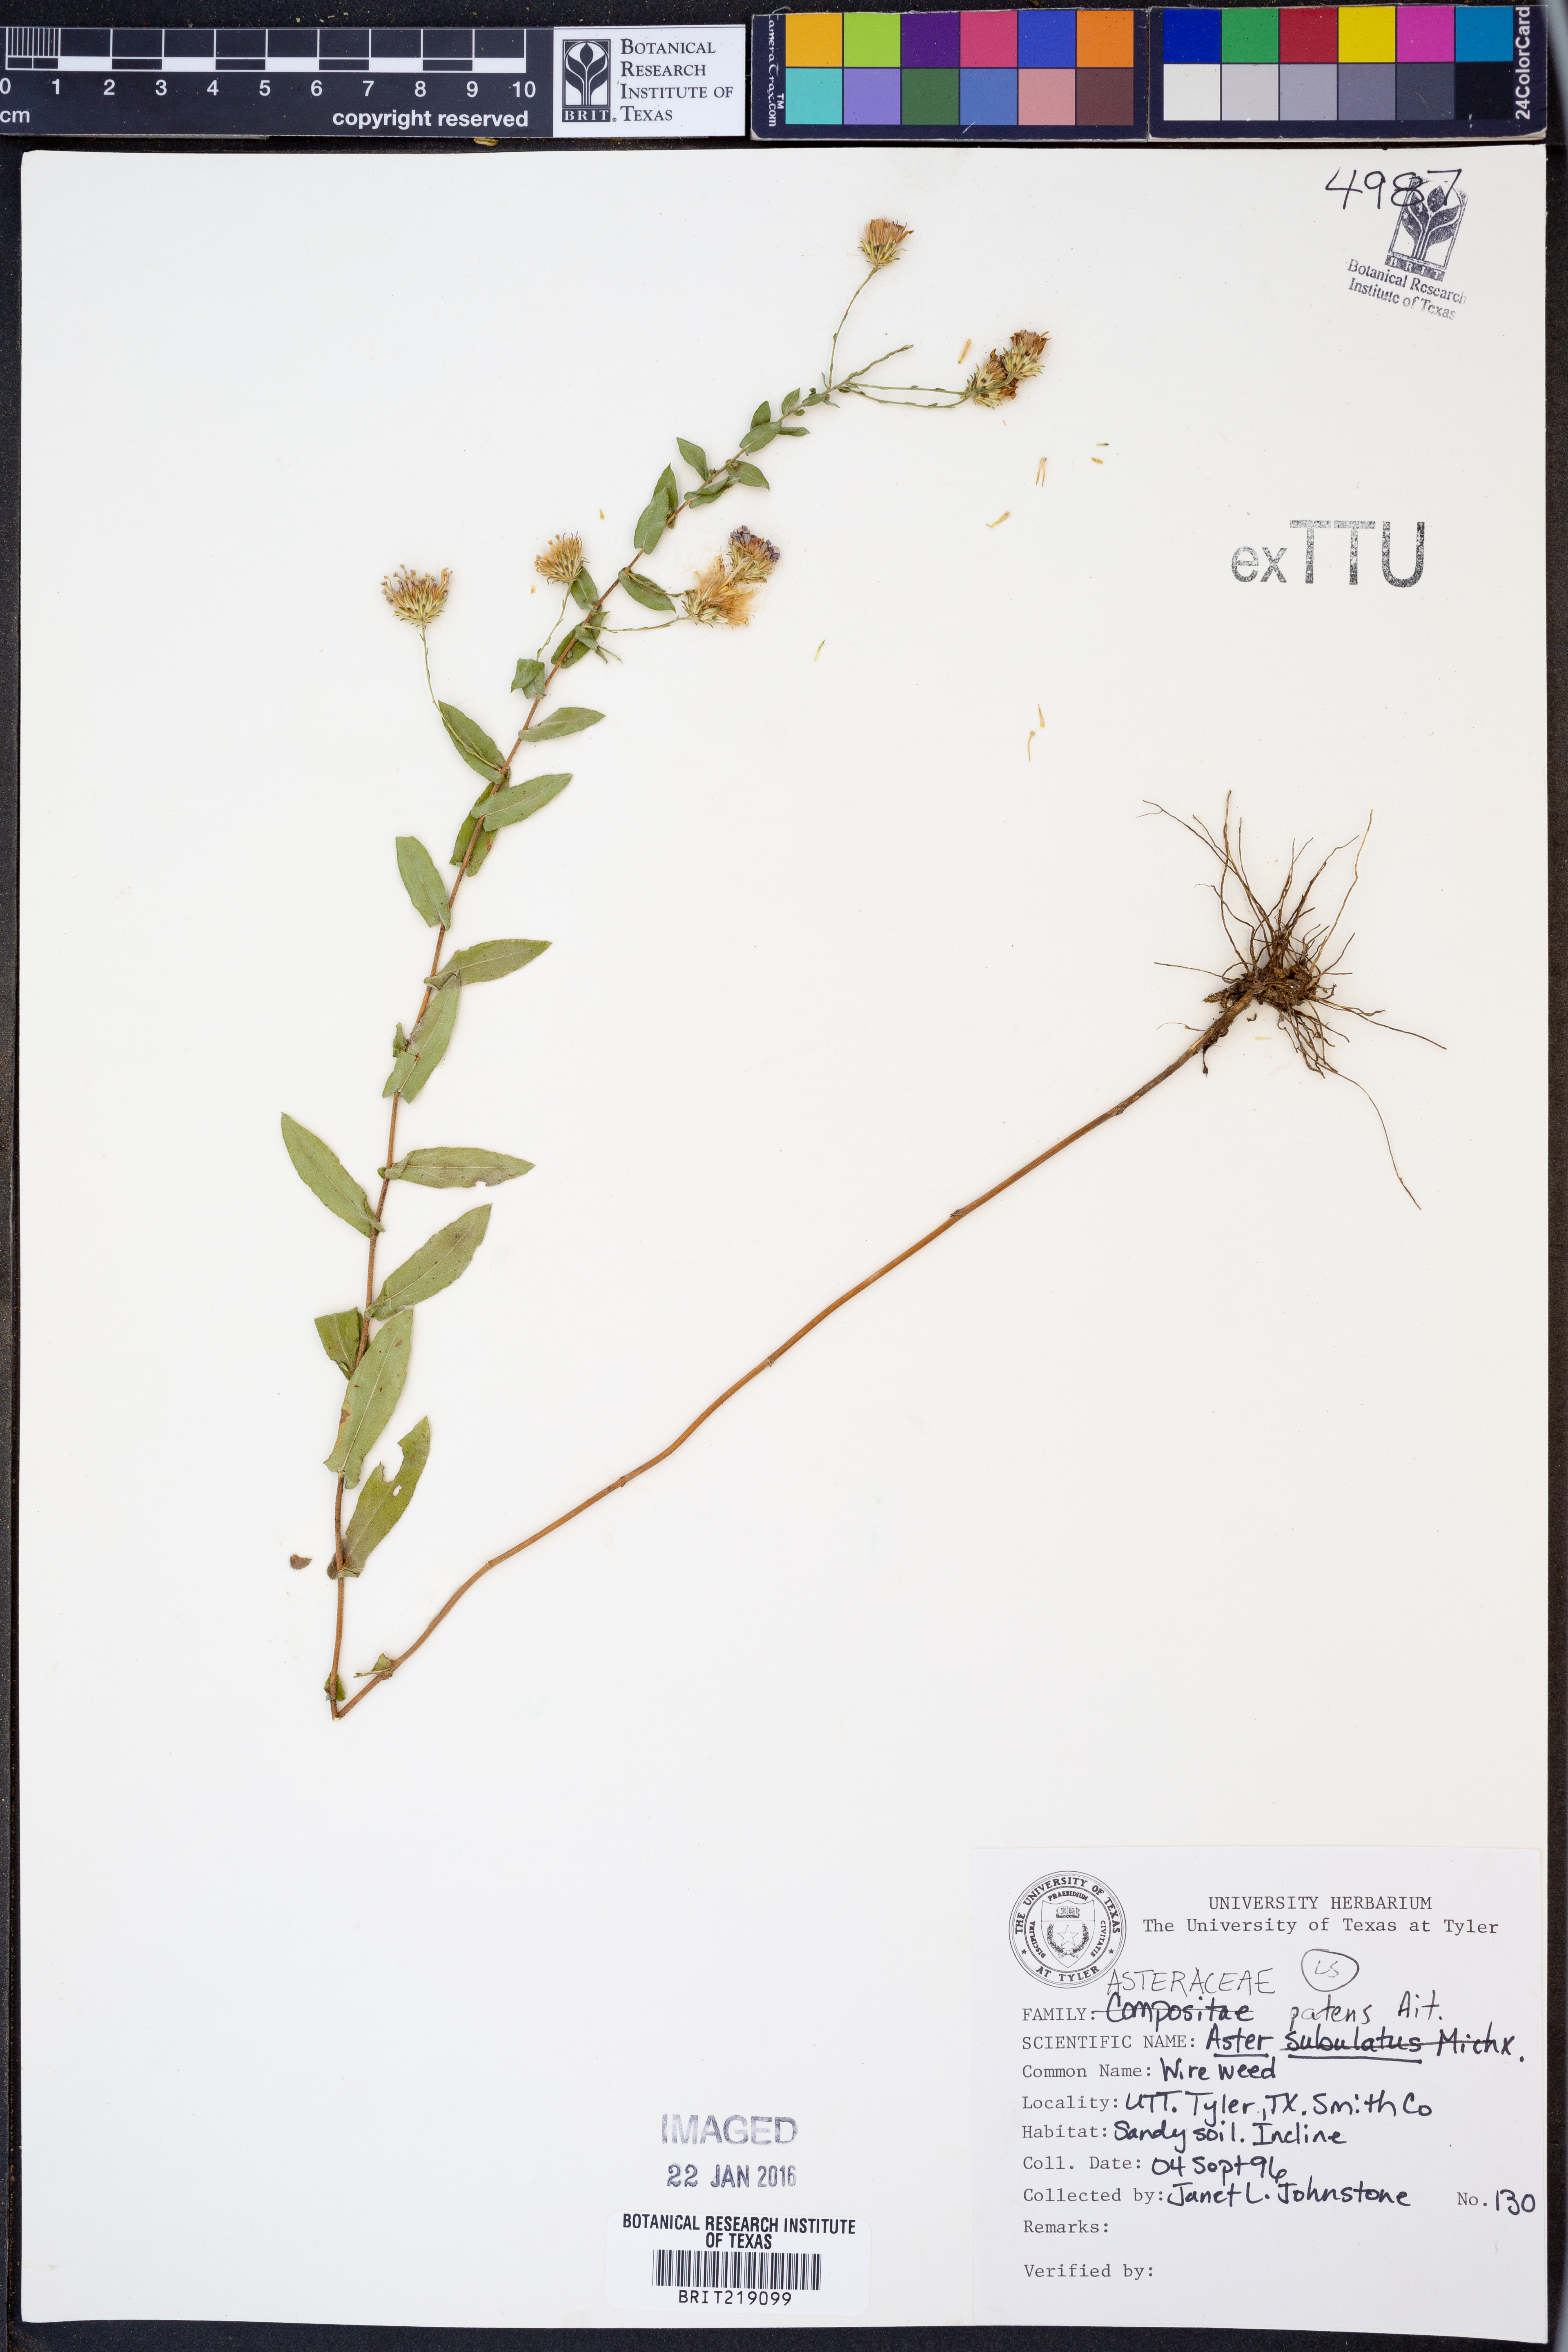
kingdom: Plantae
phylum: Tracheophyta
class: Magnoliopsida
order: Asterales
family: Asteraceae
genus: Symphyotrichum
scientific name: Symphyotrichum patens
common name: Late purple aster
